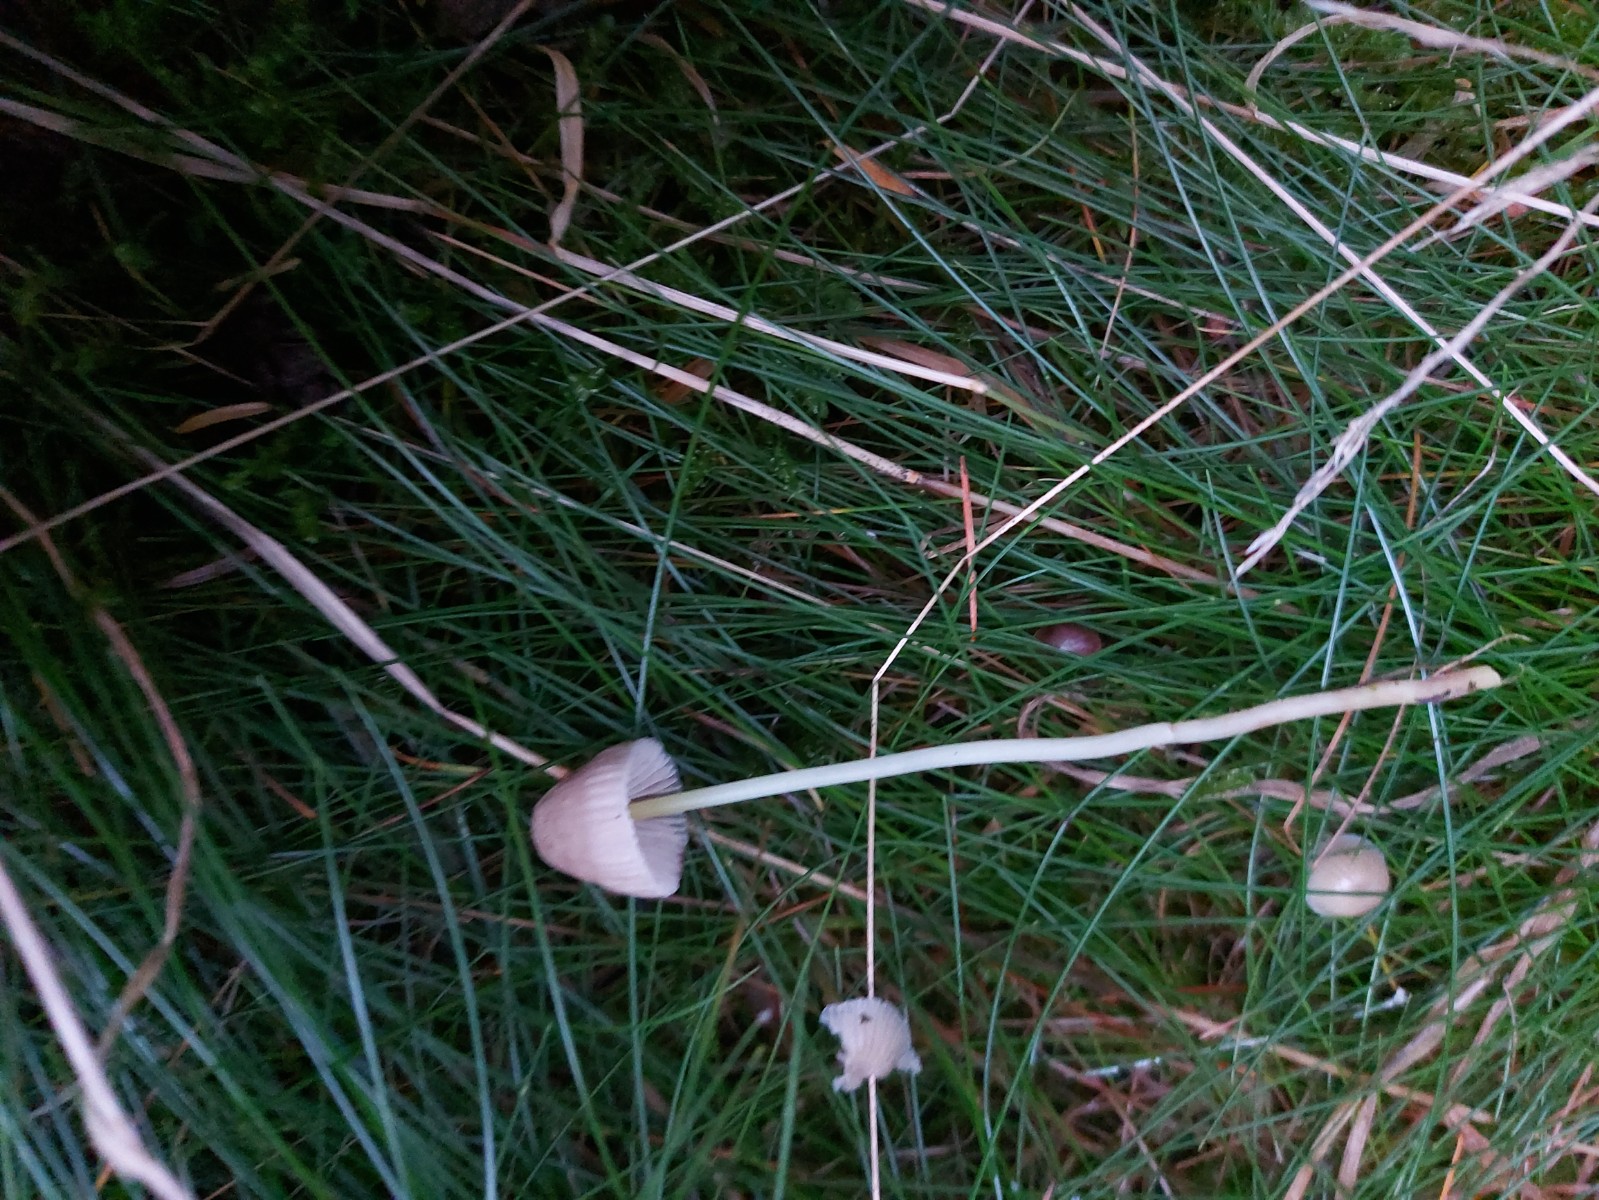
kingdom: Fungi
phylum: Basidiomycota
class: Agaricomycetes
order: Agaricales
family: Mycenaceae
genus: Mycena
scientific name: Mycena epipterygia
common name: gulstokket huesvamp
